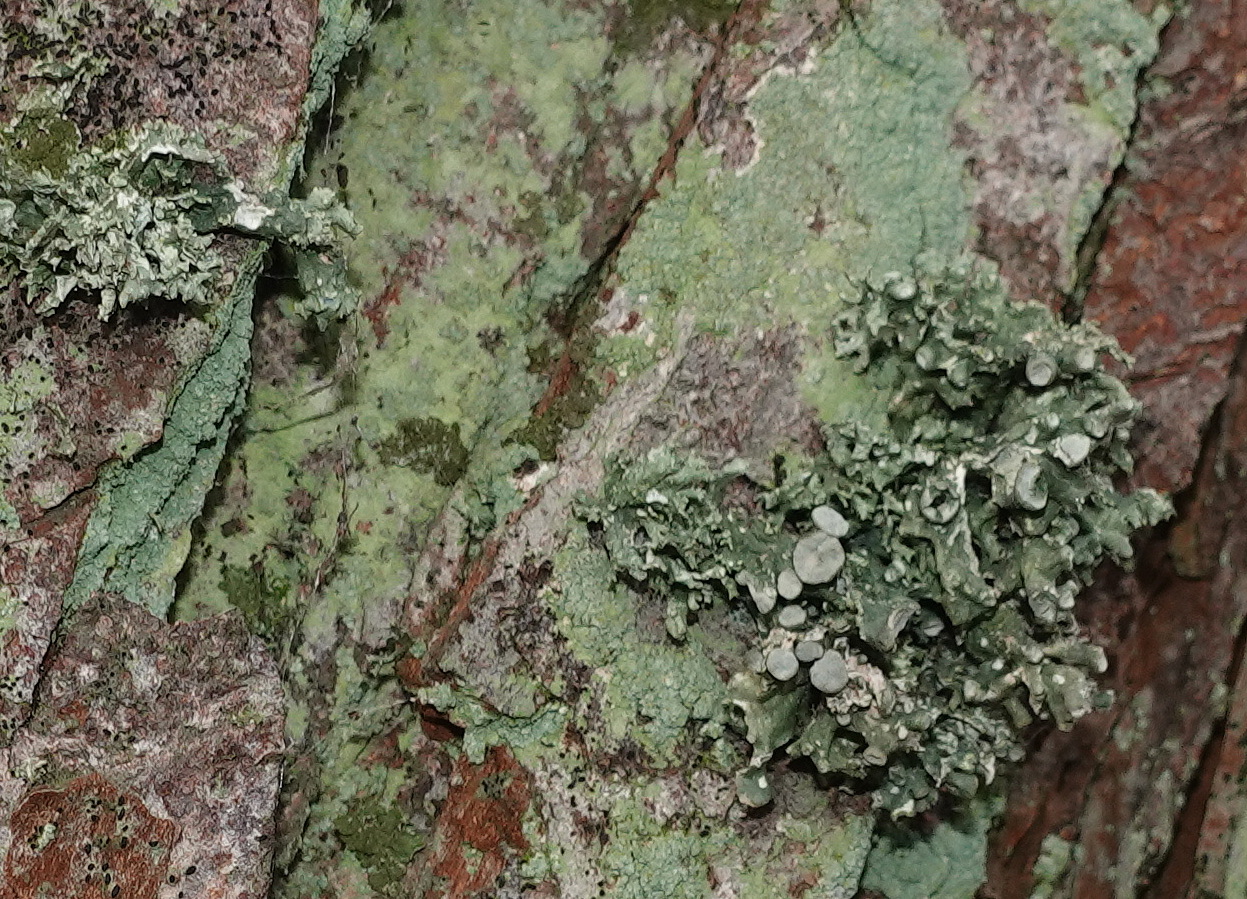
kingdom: Fungi
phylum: Ascomycota
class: Lecanoromycetes
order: Lecanorales
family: Ramalinaceae
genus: Ramalina
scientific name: Ramalina fastigiata
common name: tue-grenlav
